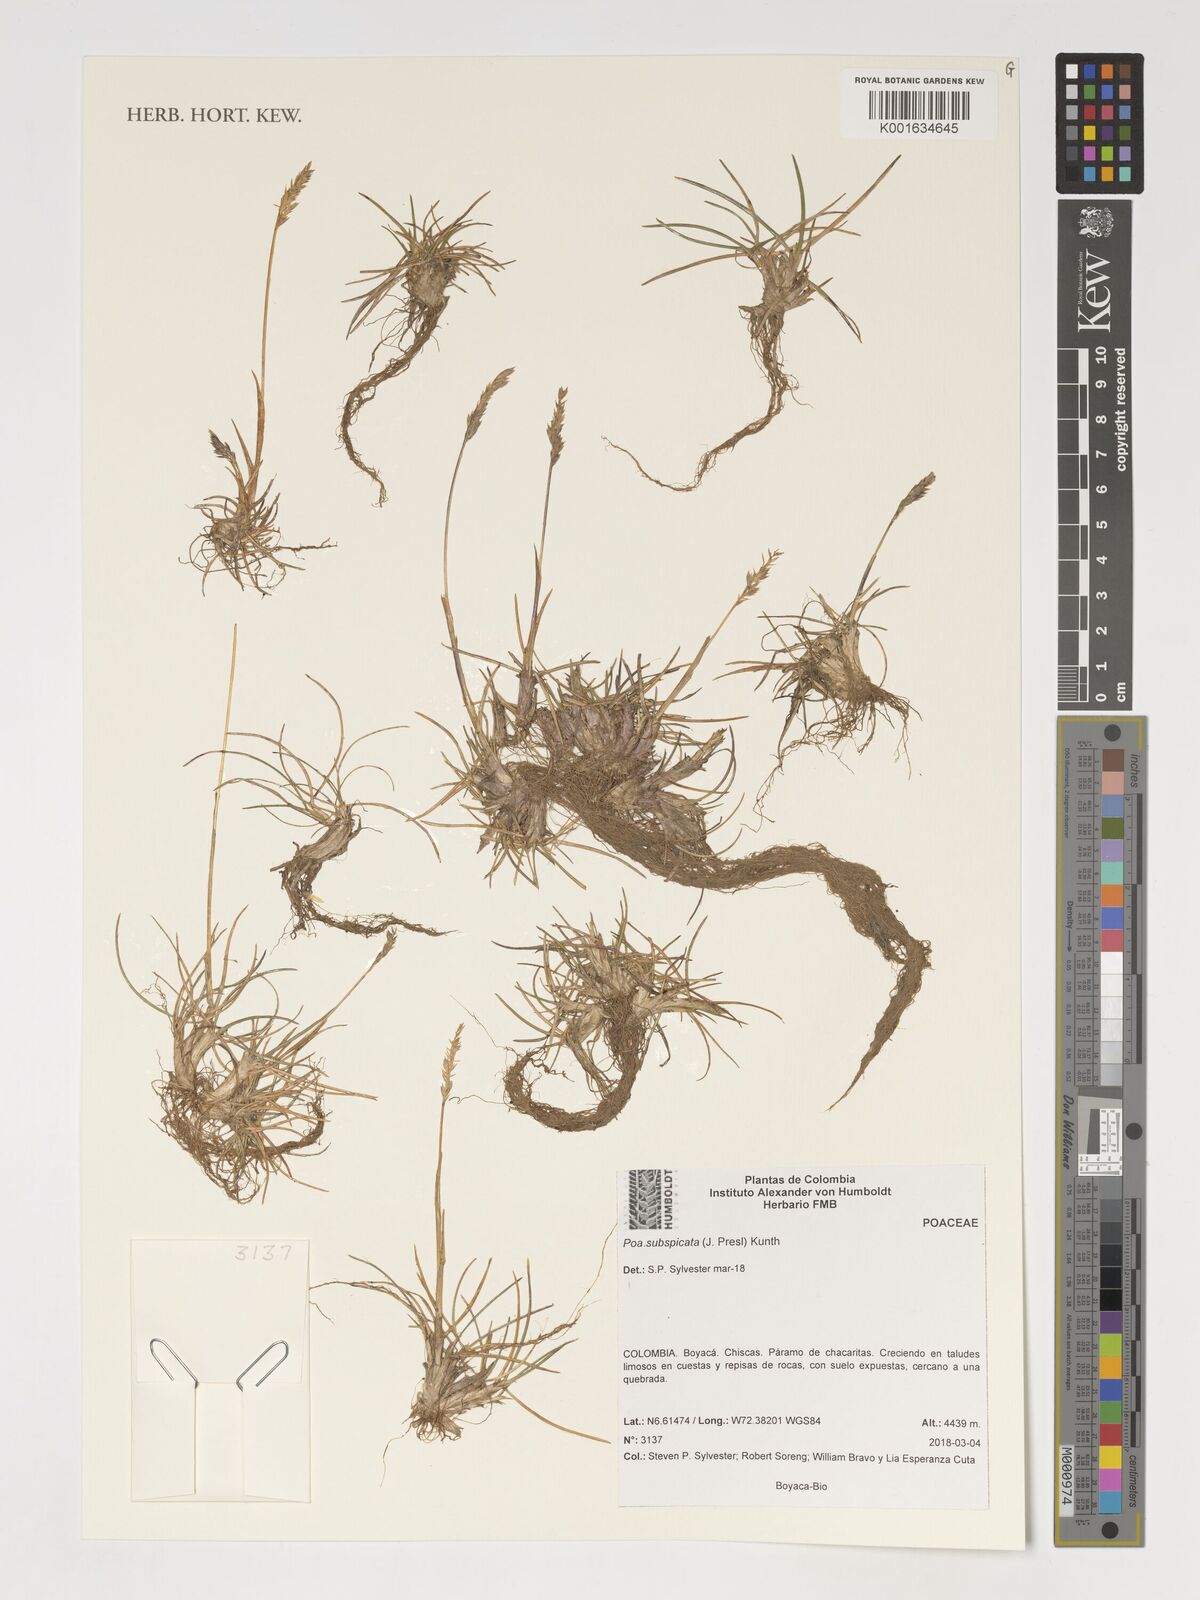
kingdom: Plantae
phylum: Tracheophyta
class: Liliopsida
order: Poales
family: Poaceae
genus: Poa
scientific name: Poa subspicata
